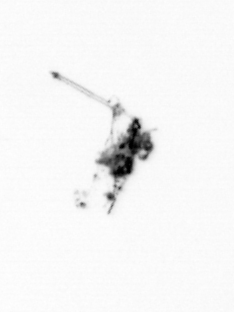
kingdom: Animalia
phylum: Arthropoda
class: Copepoda
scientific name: Copepoda
